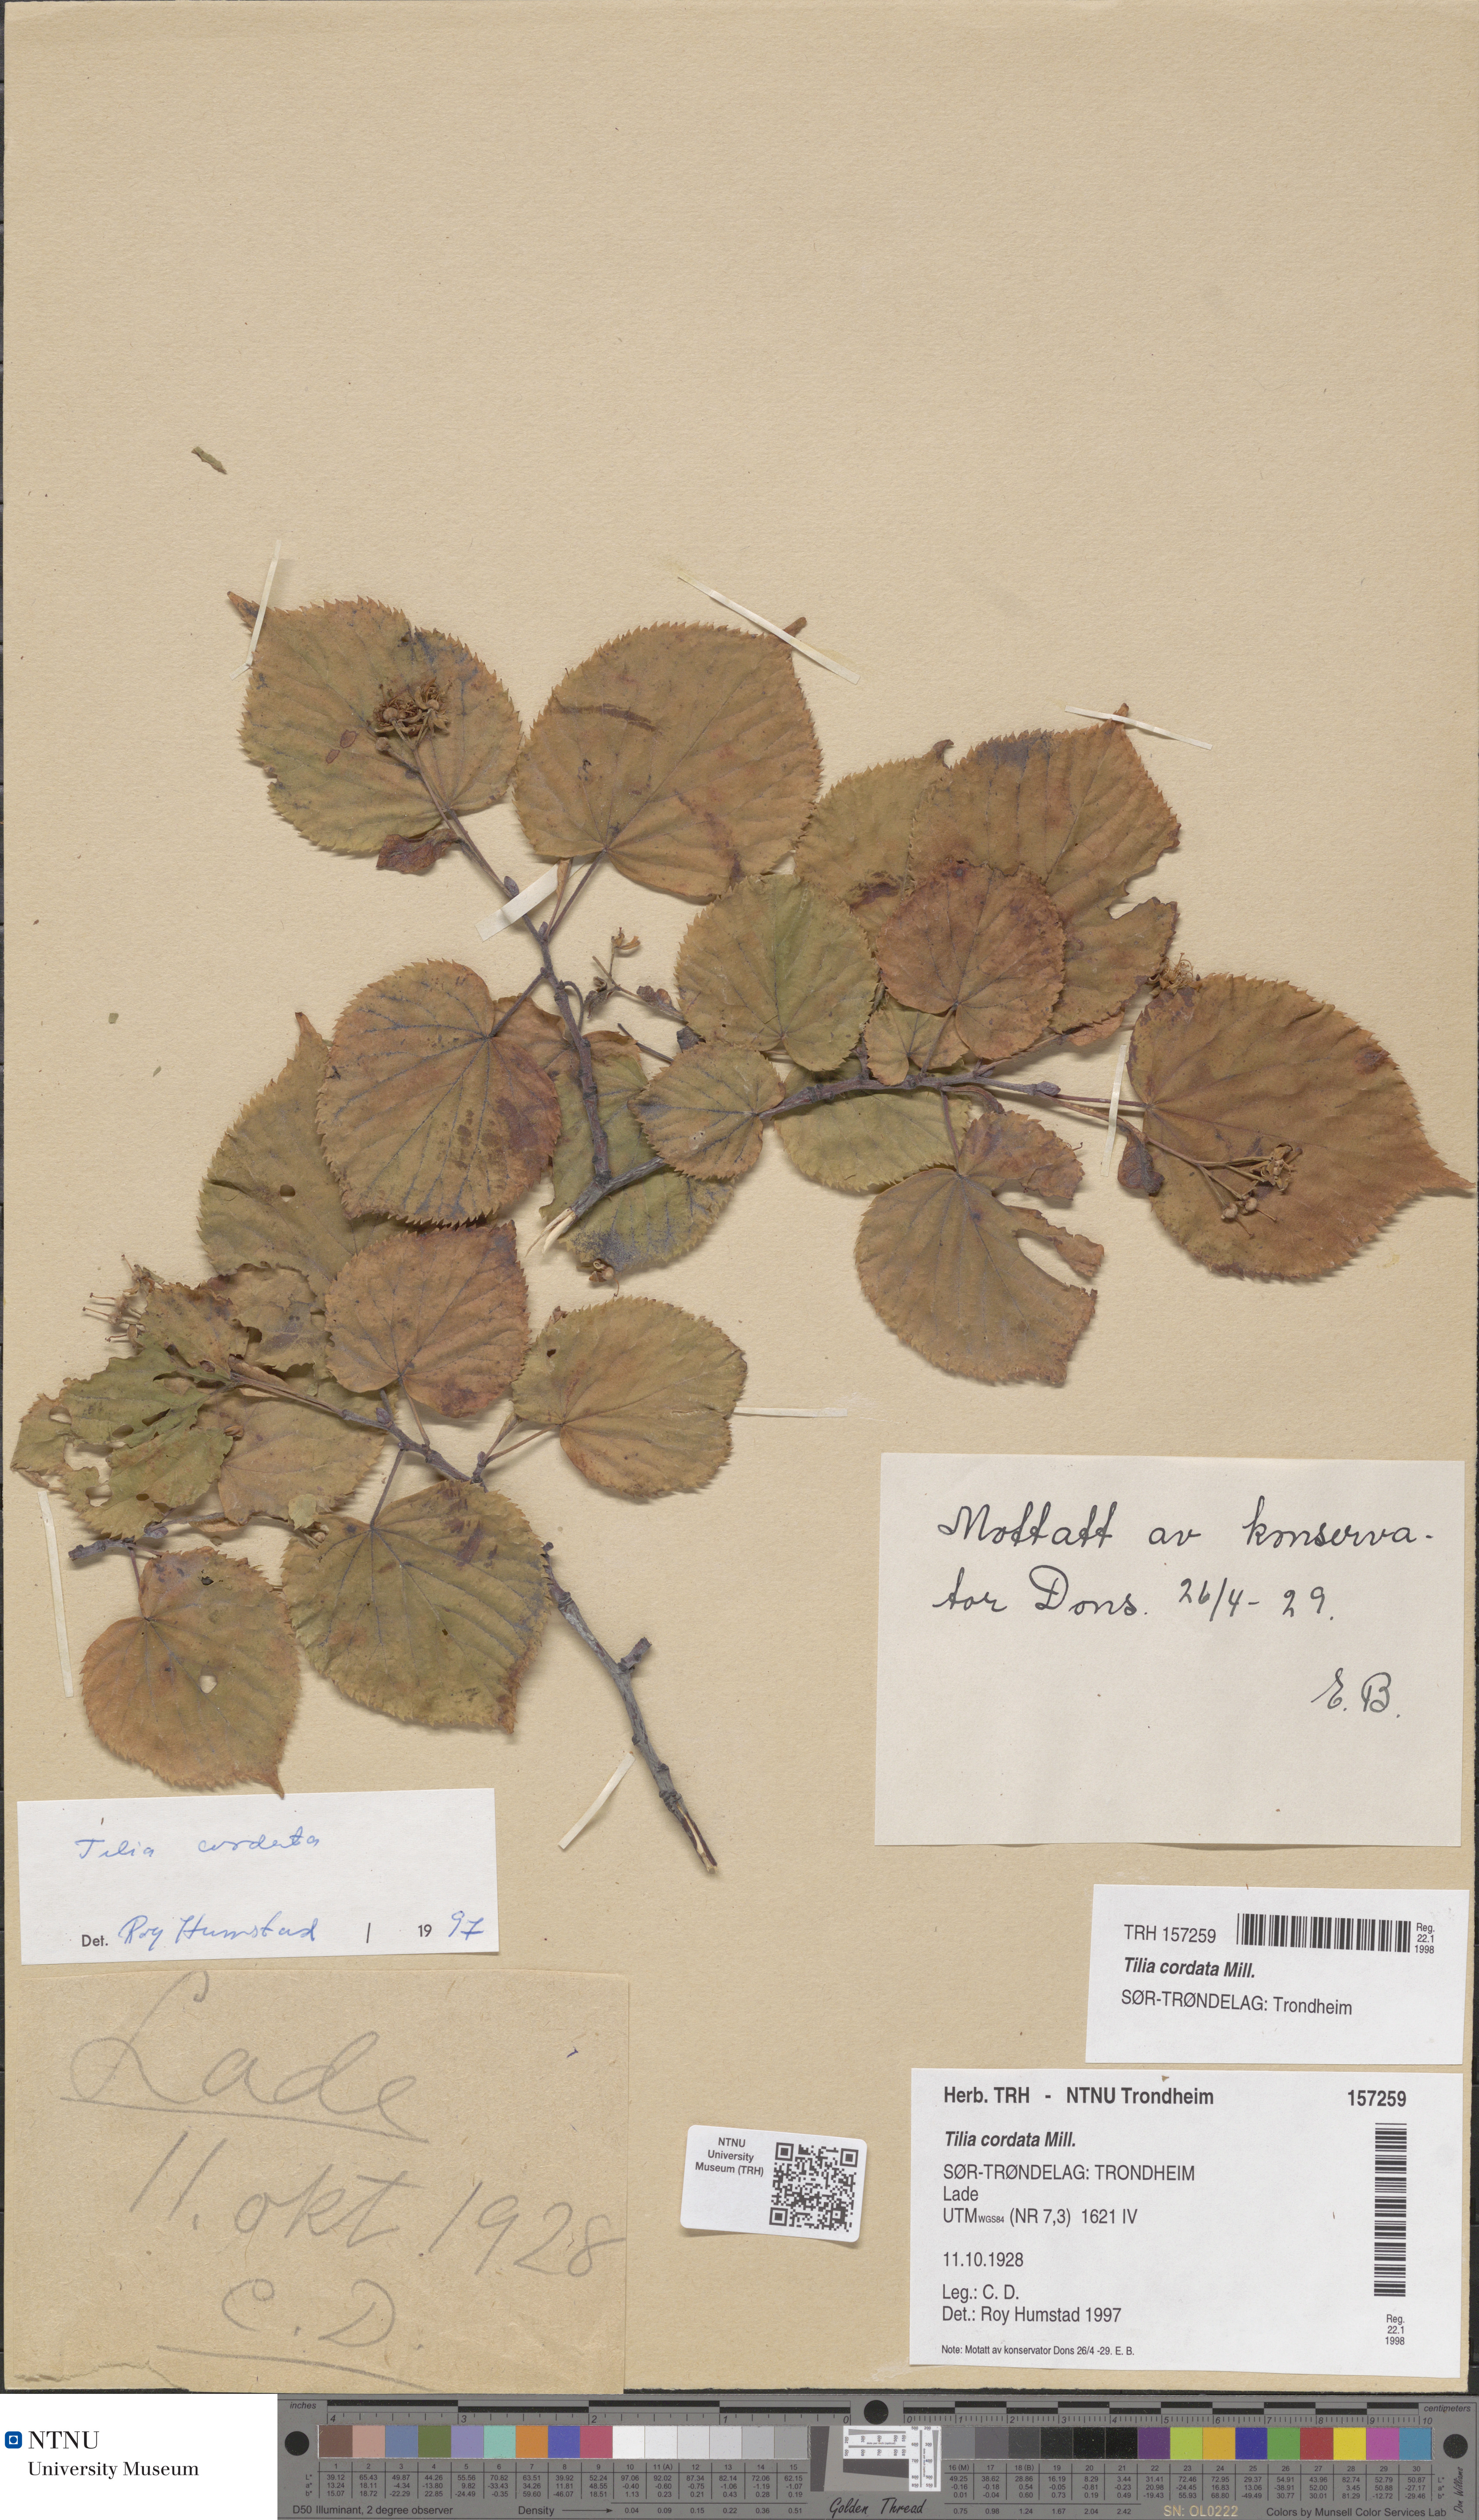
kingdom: Plantae
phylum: Tracheophyta
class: Magnoliopsida
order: Malvales
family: Malvaceae
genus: Tilia
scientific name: Tilia cordata
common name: Small-leaved lime
